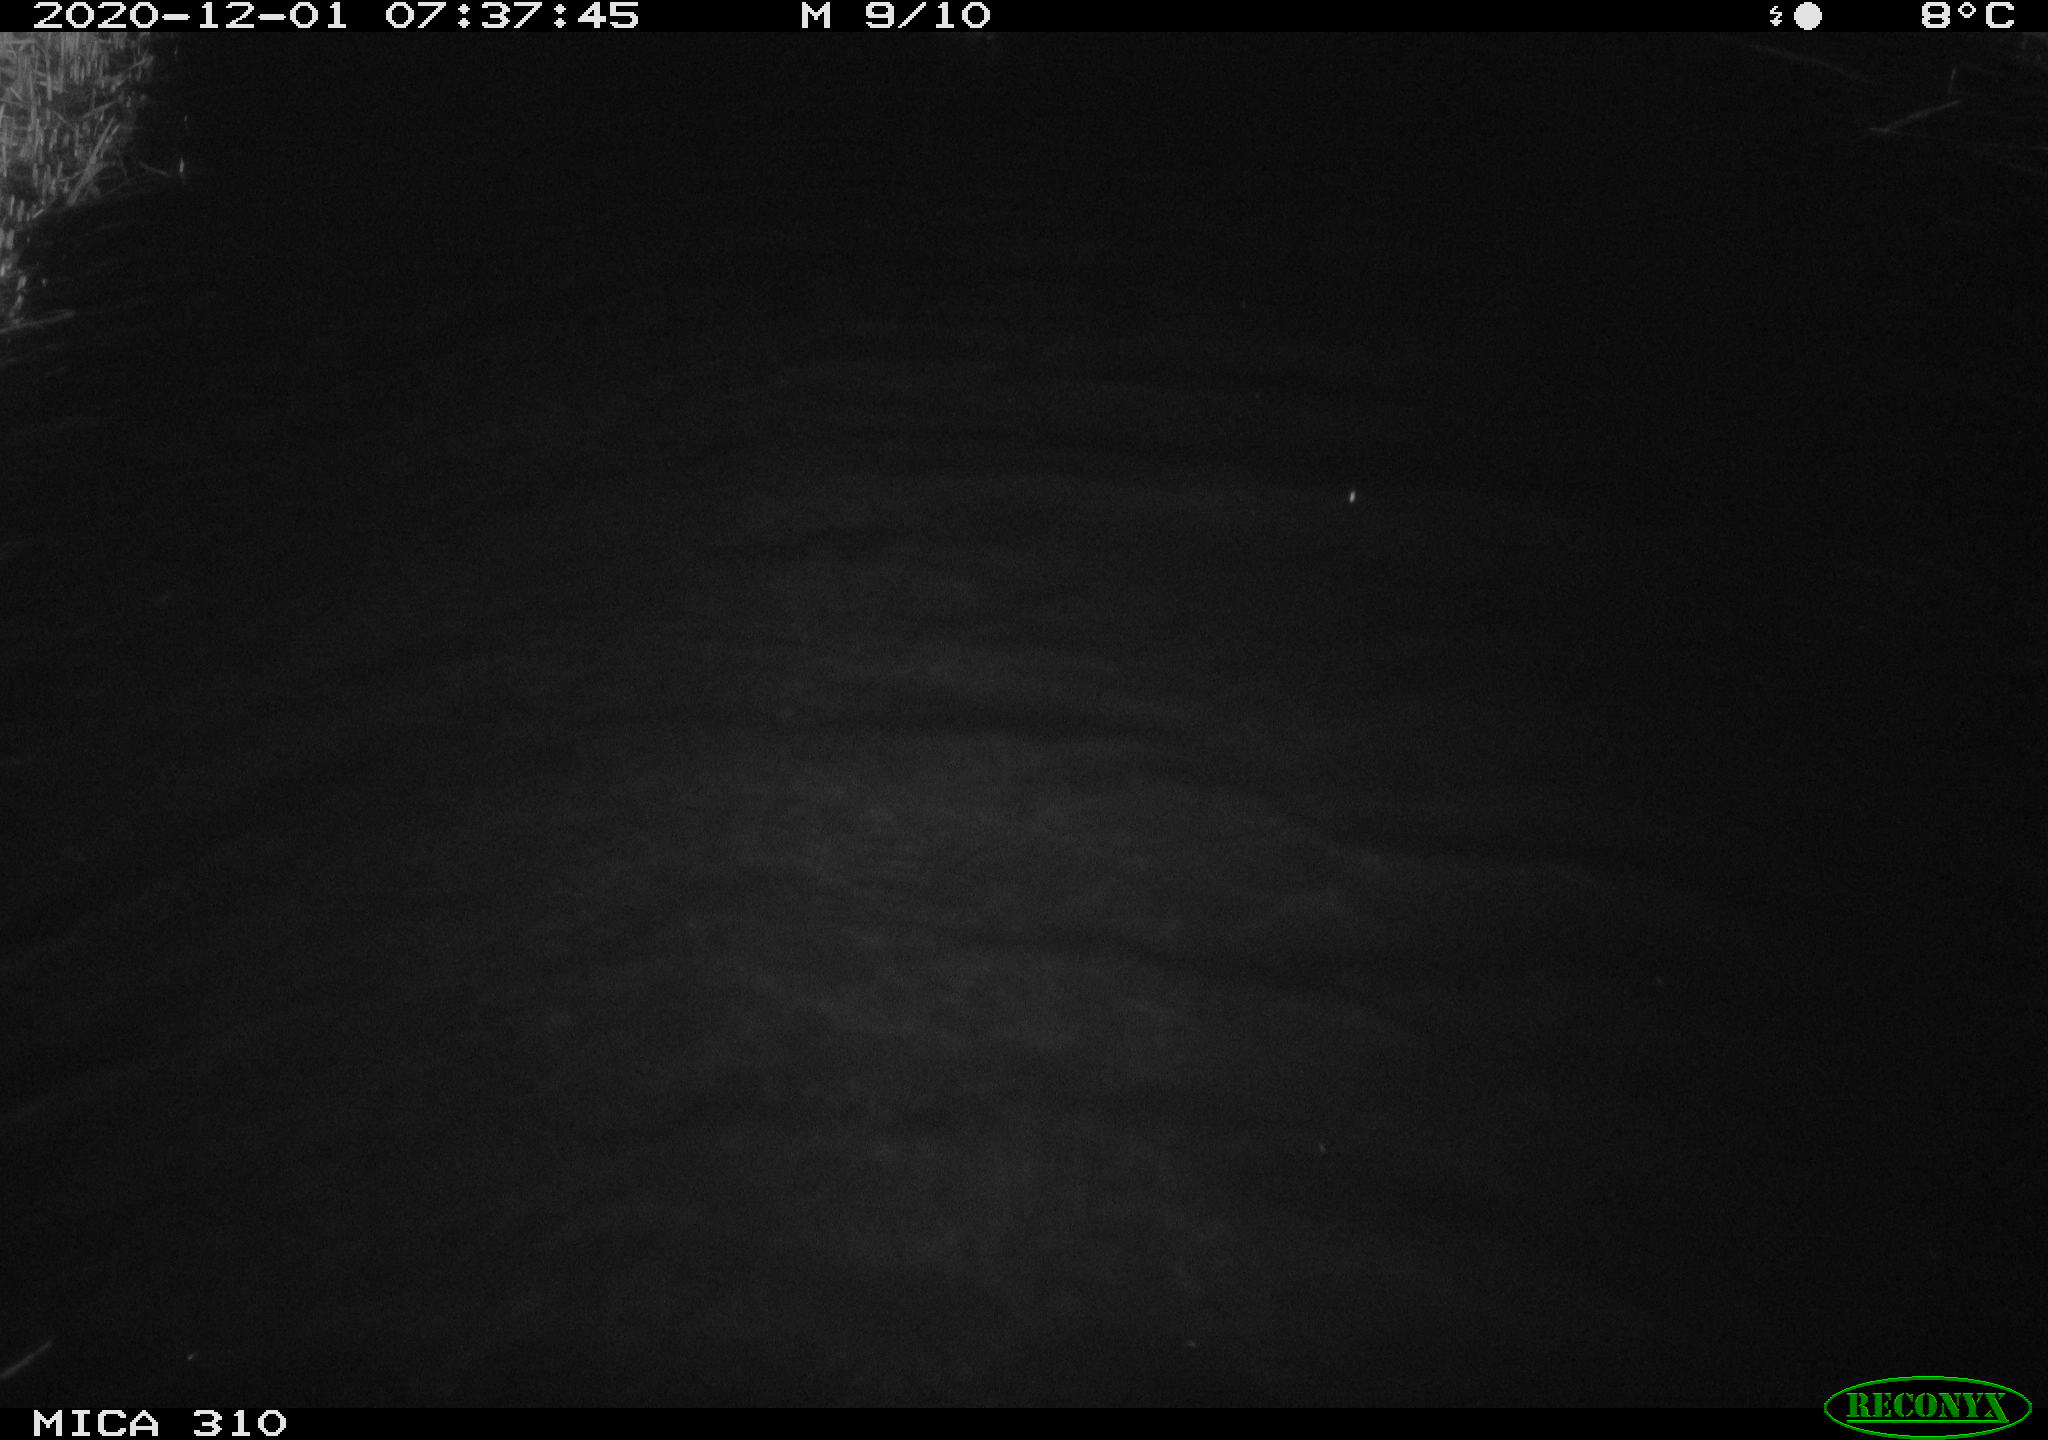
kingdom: Animalia
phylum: Chordata
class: Aves
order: Gruiformes
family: Rallidae
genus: Fulica
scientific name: Fulica atra
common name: Eurasian coot
